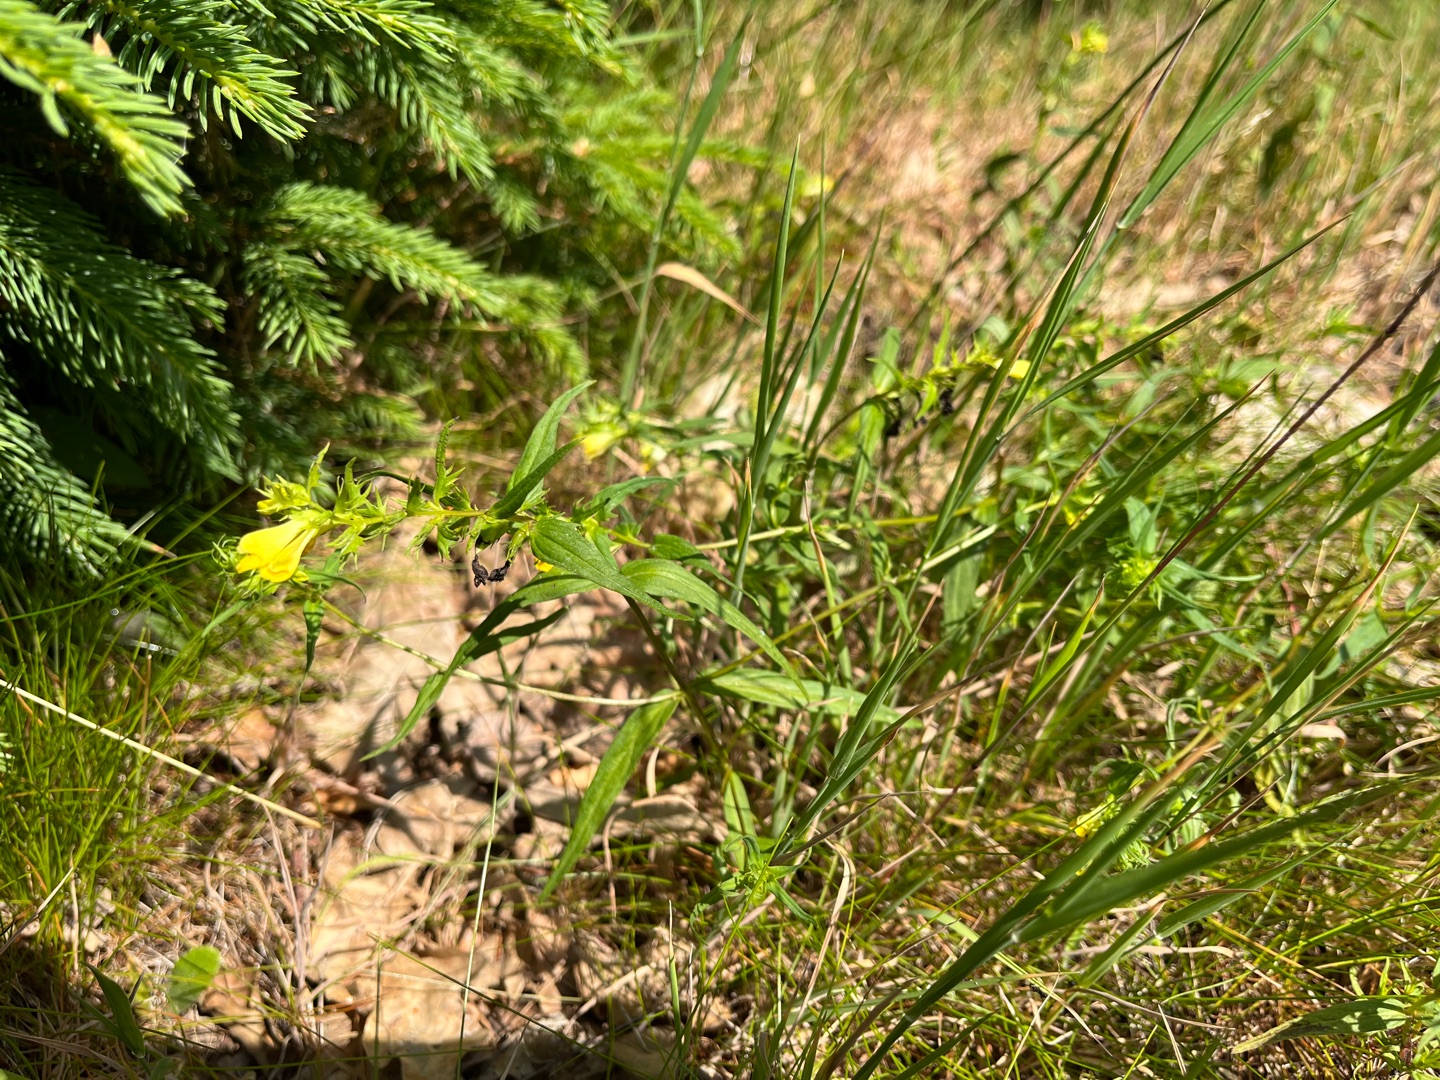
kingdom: Plantae
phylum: Tracheophyta
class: Magnoliopsida
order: Lamiales
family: Orobanchaceae
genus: Melampyrum
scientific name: Melampyrum pratense
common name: Almindelig kohvede
